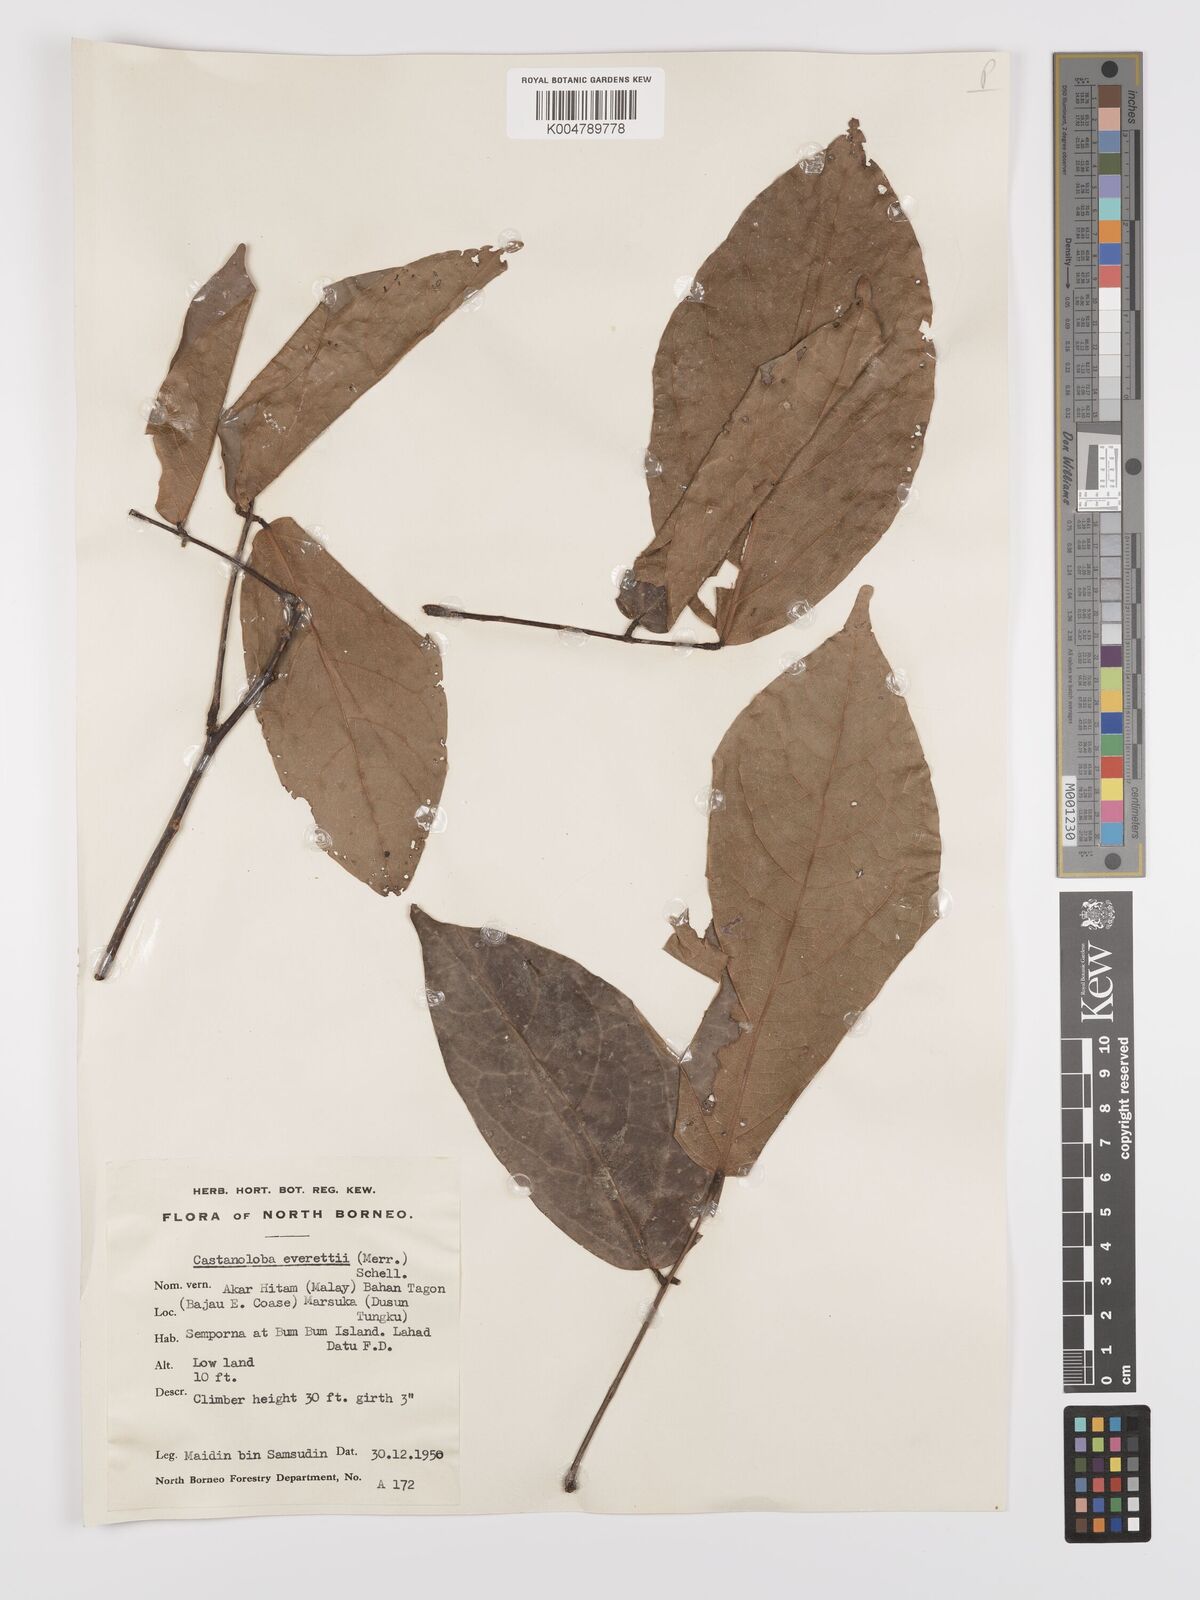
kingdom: Plantae
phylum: Tracheophyta
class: Magnoliopsida
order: Oxalidales
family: Connaraceae
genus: Agelaea
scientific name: Agelaea borneensis
